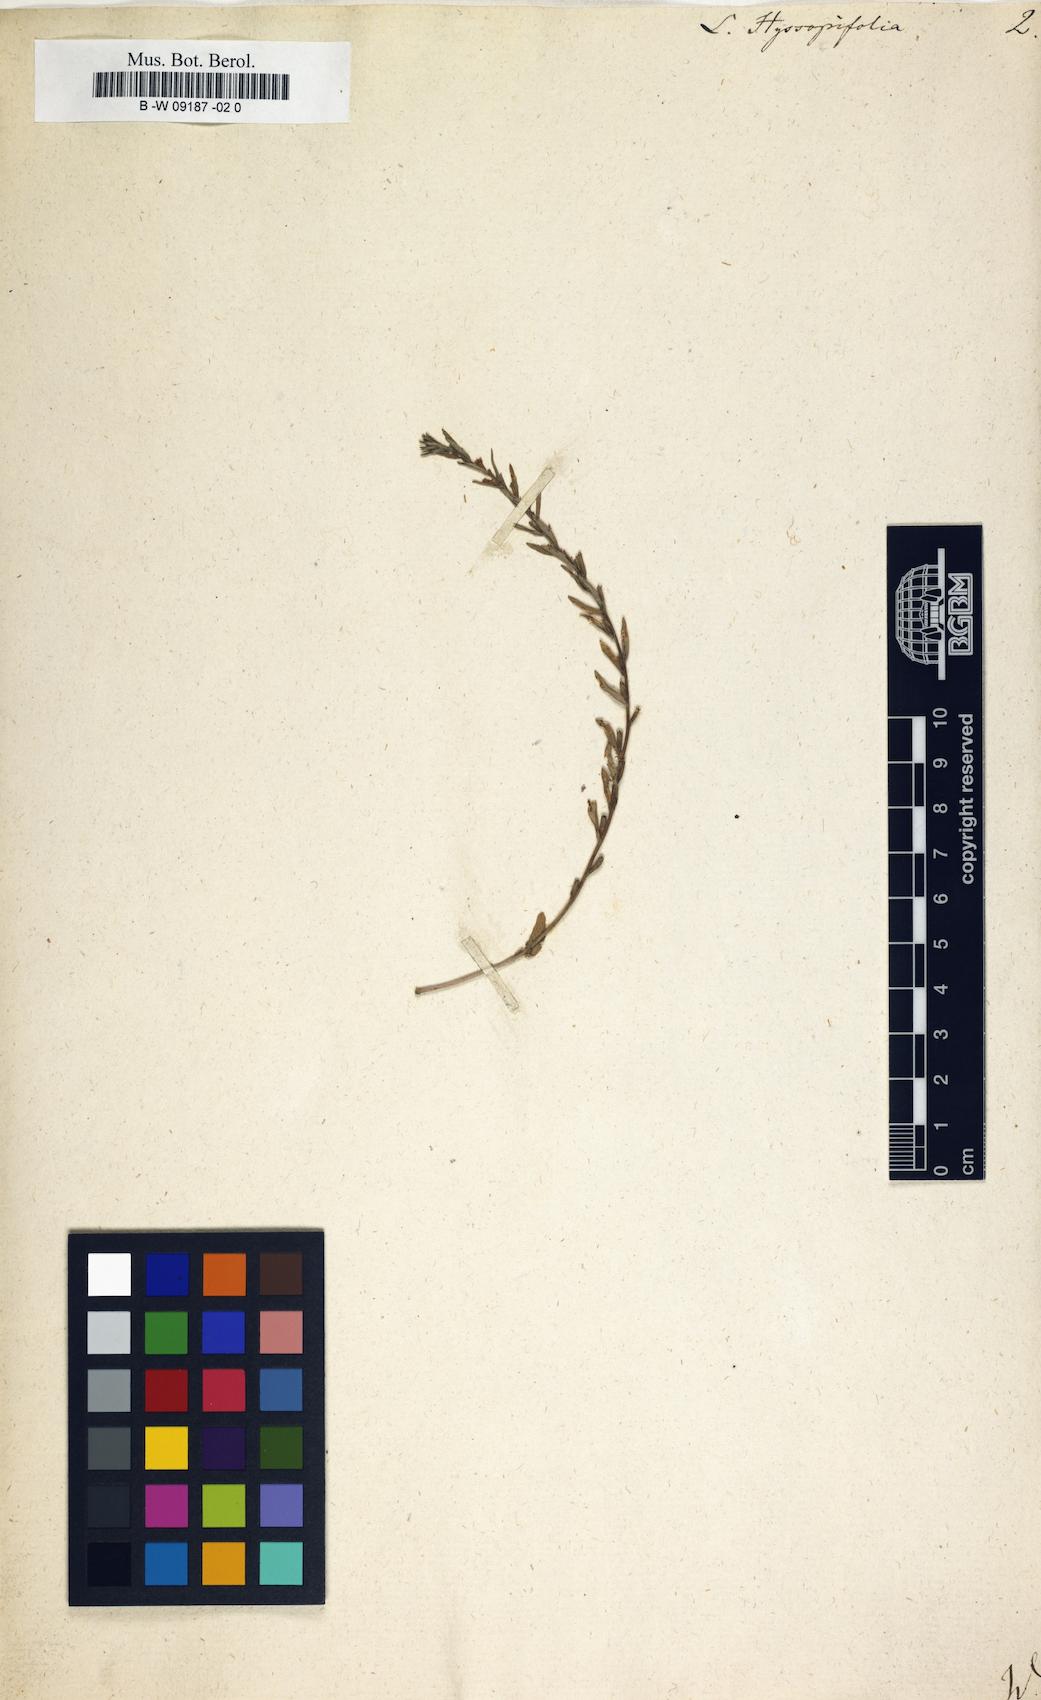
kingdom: Plantae
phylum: Tracheophyta
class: Magnoliopsida
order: Myrtales
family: Lythraceae
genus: Lythrum
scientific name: Lythrum hyssopifolia
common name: Grass-poly
